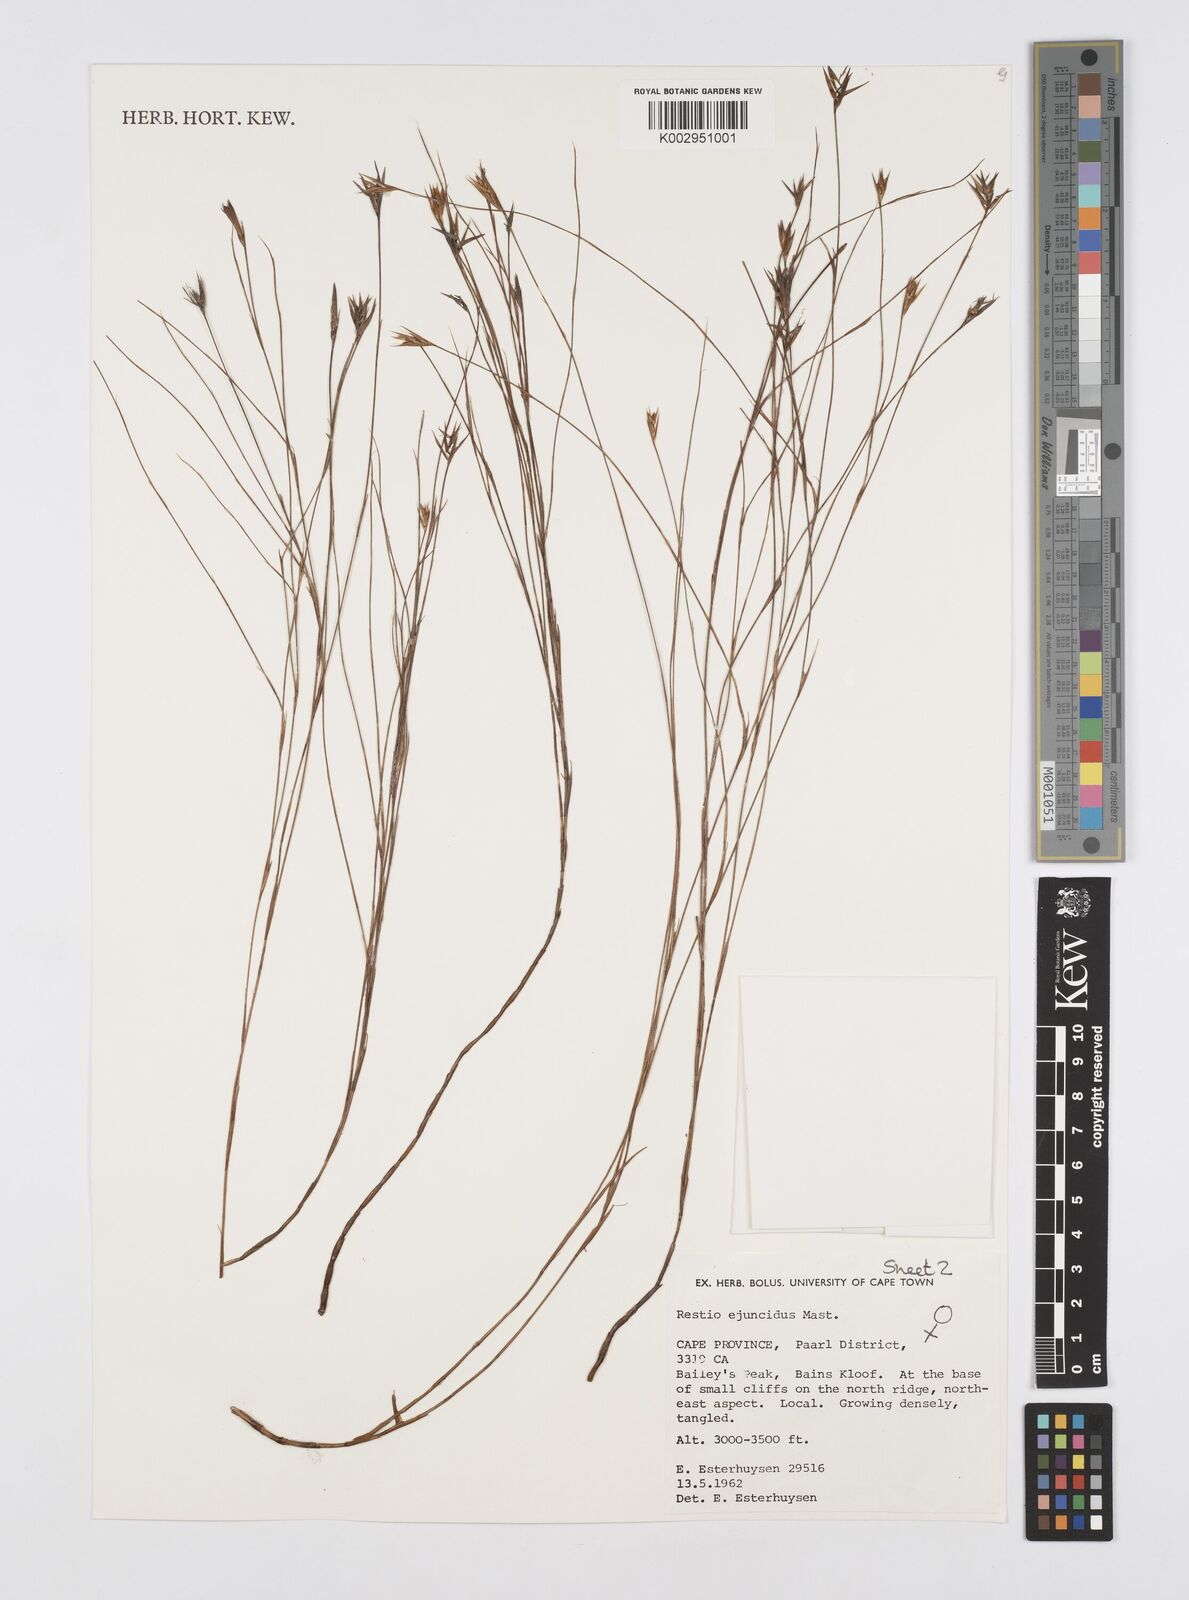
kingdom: Plantae
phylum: Tracheophyta
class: Liliopsida
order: Poales
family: Restionaceae
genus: Restio
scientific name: Restio ejuncidus
